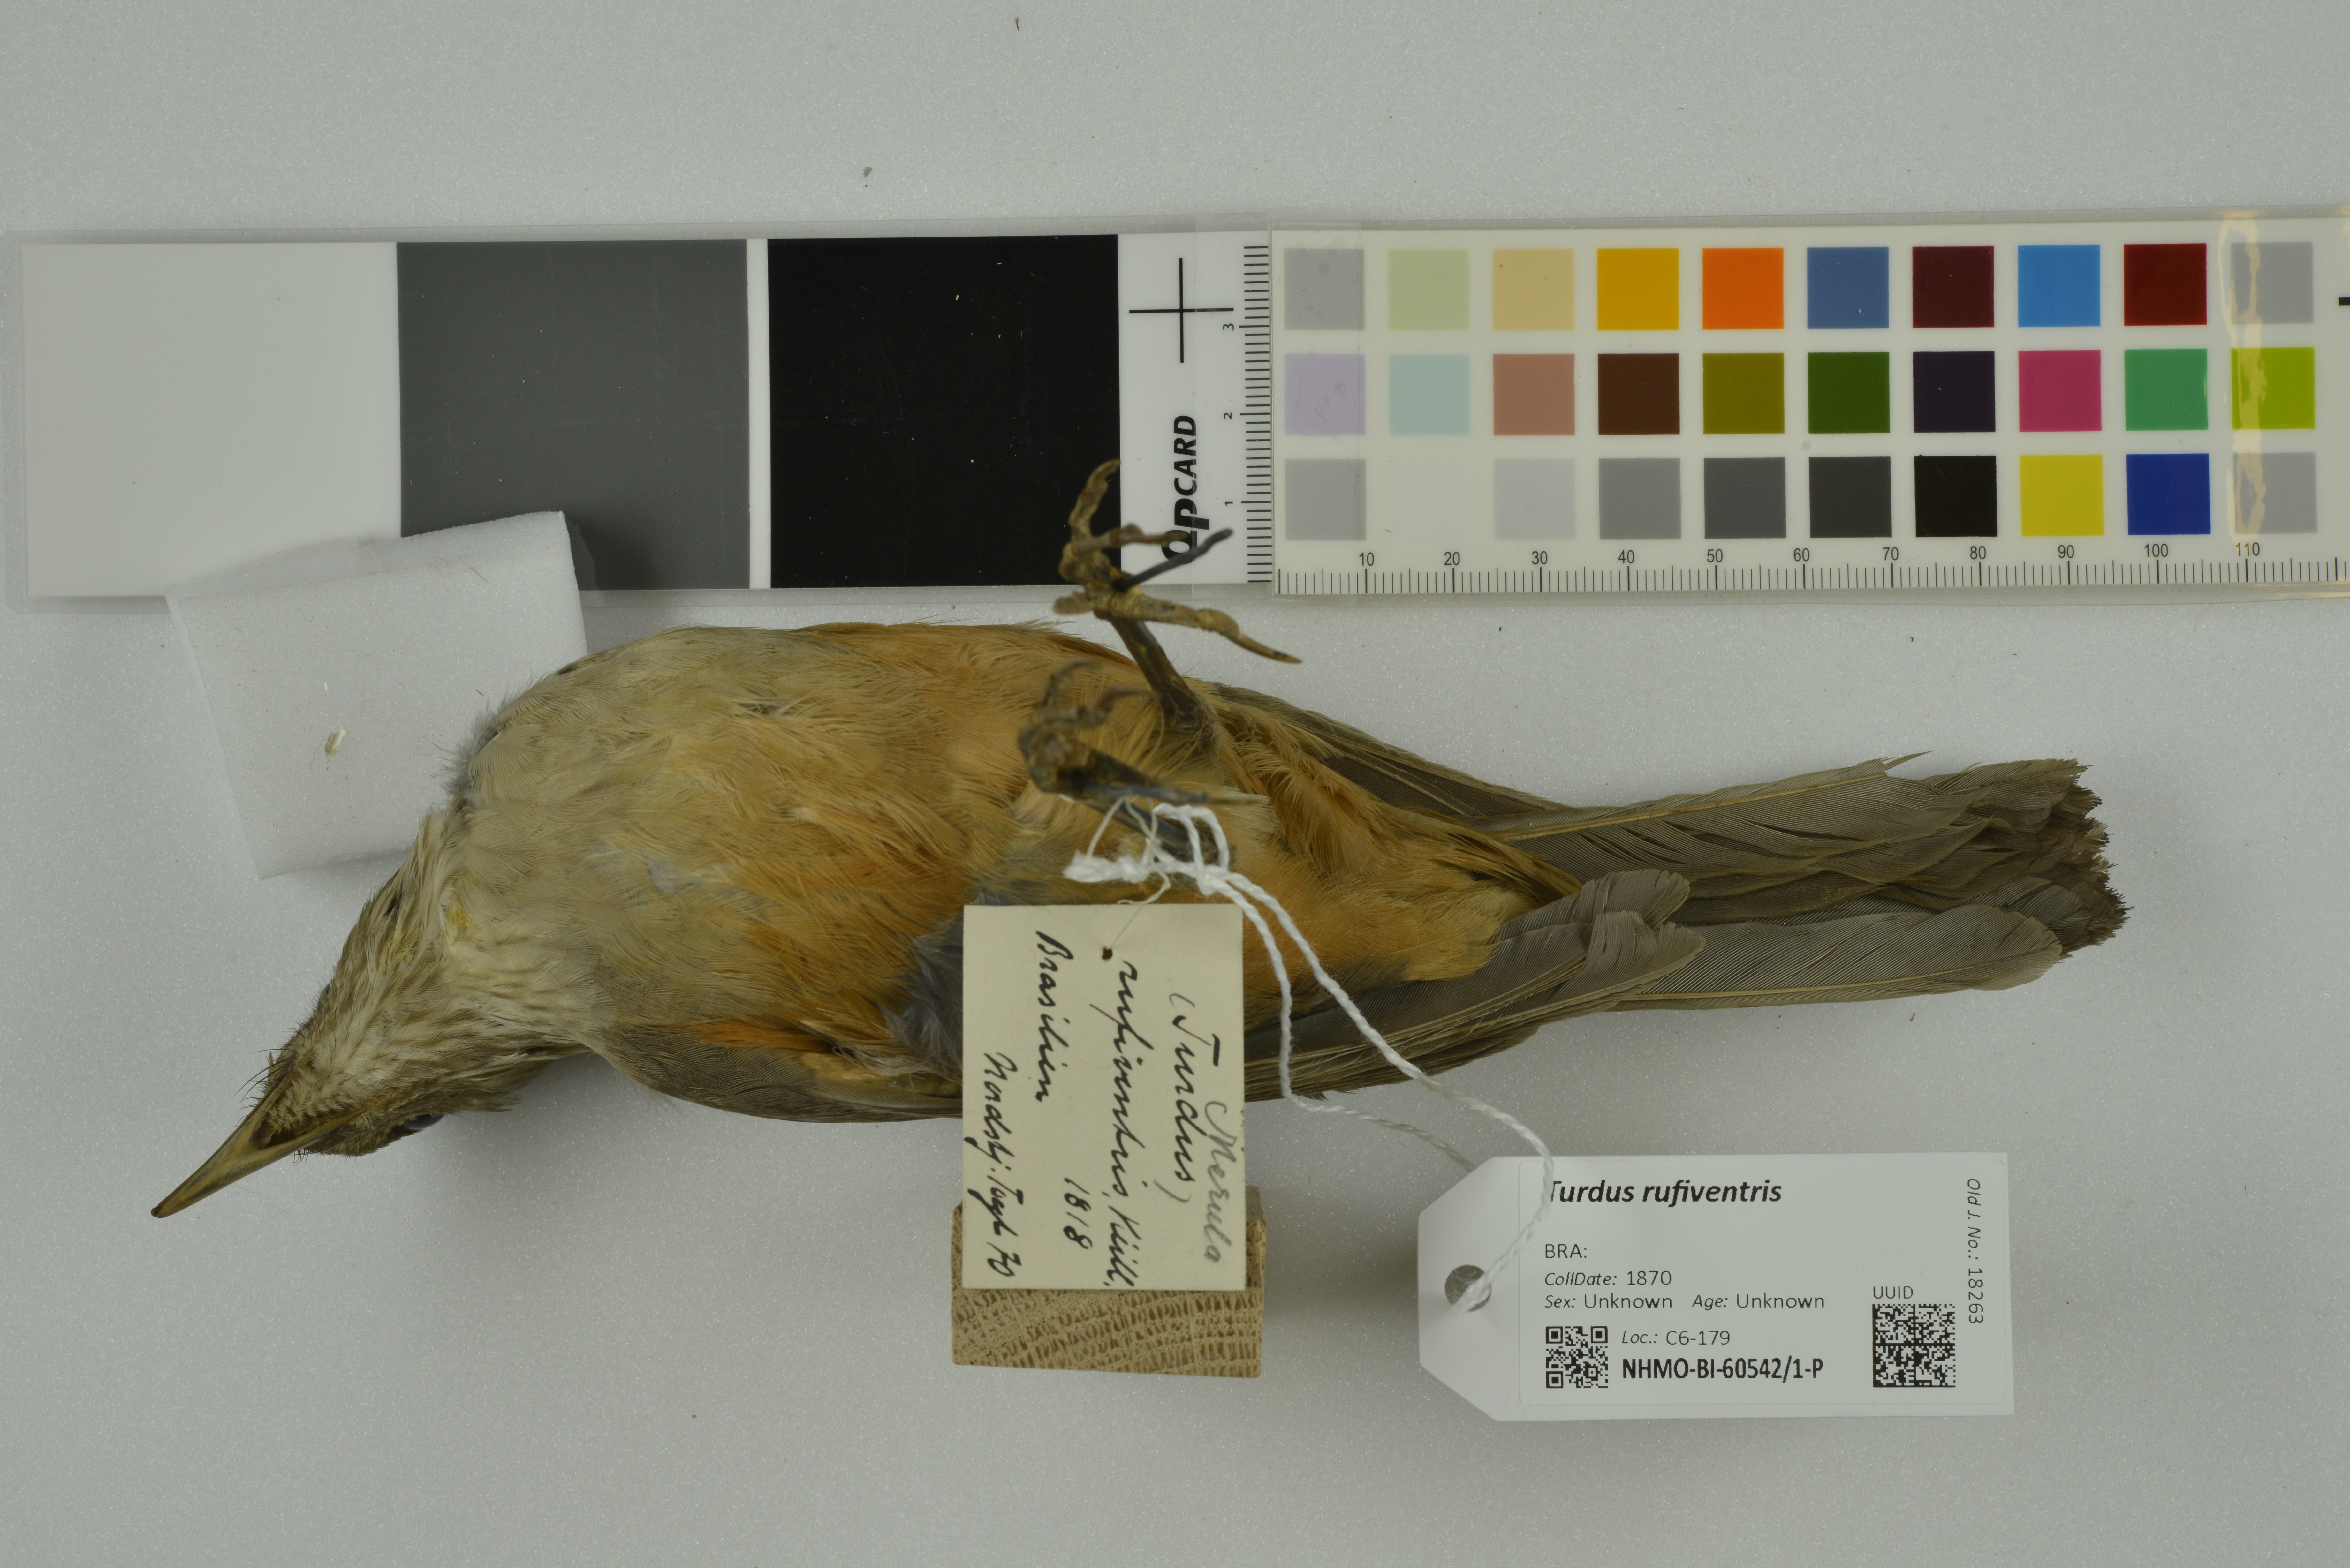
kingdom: Animalia
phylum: Chordata
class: Aves
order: Passeriformes
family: Turdidae
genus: Turdus
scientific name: Turdus rufiventris
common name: Rufous-bellied thrush
